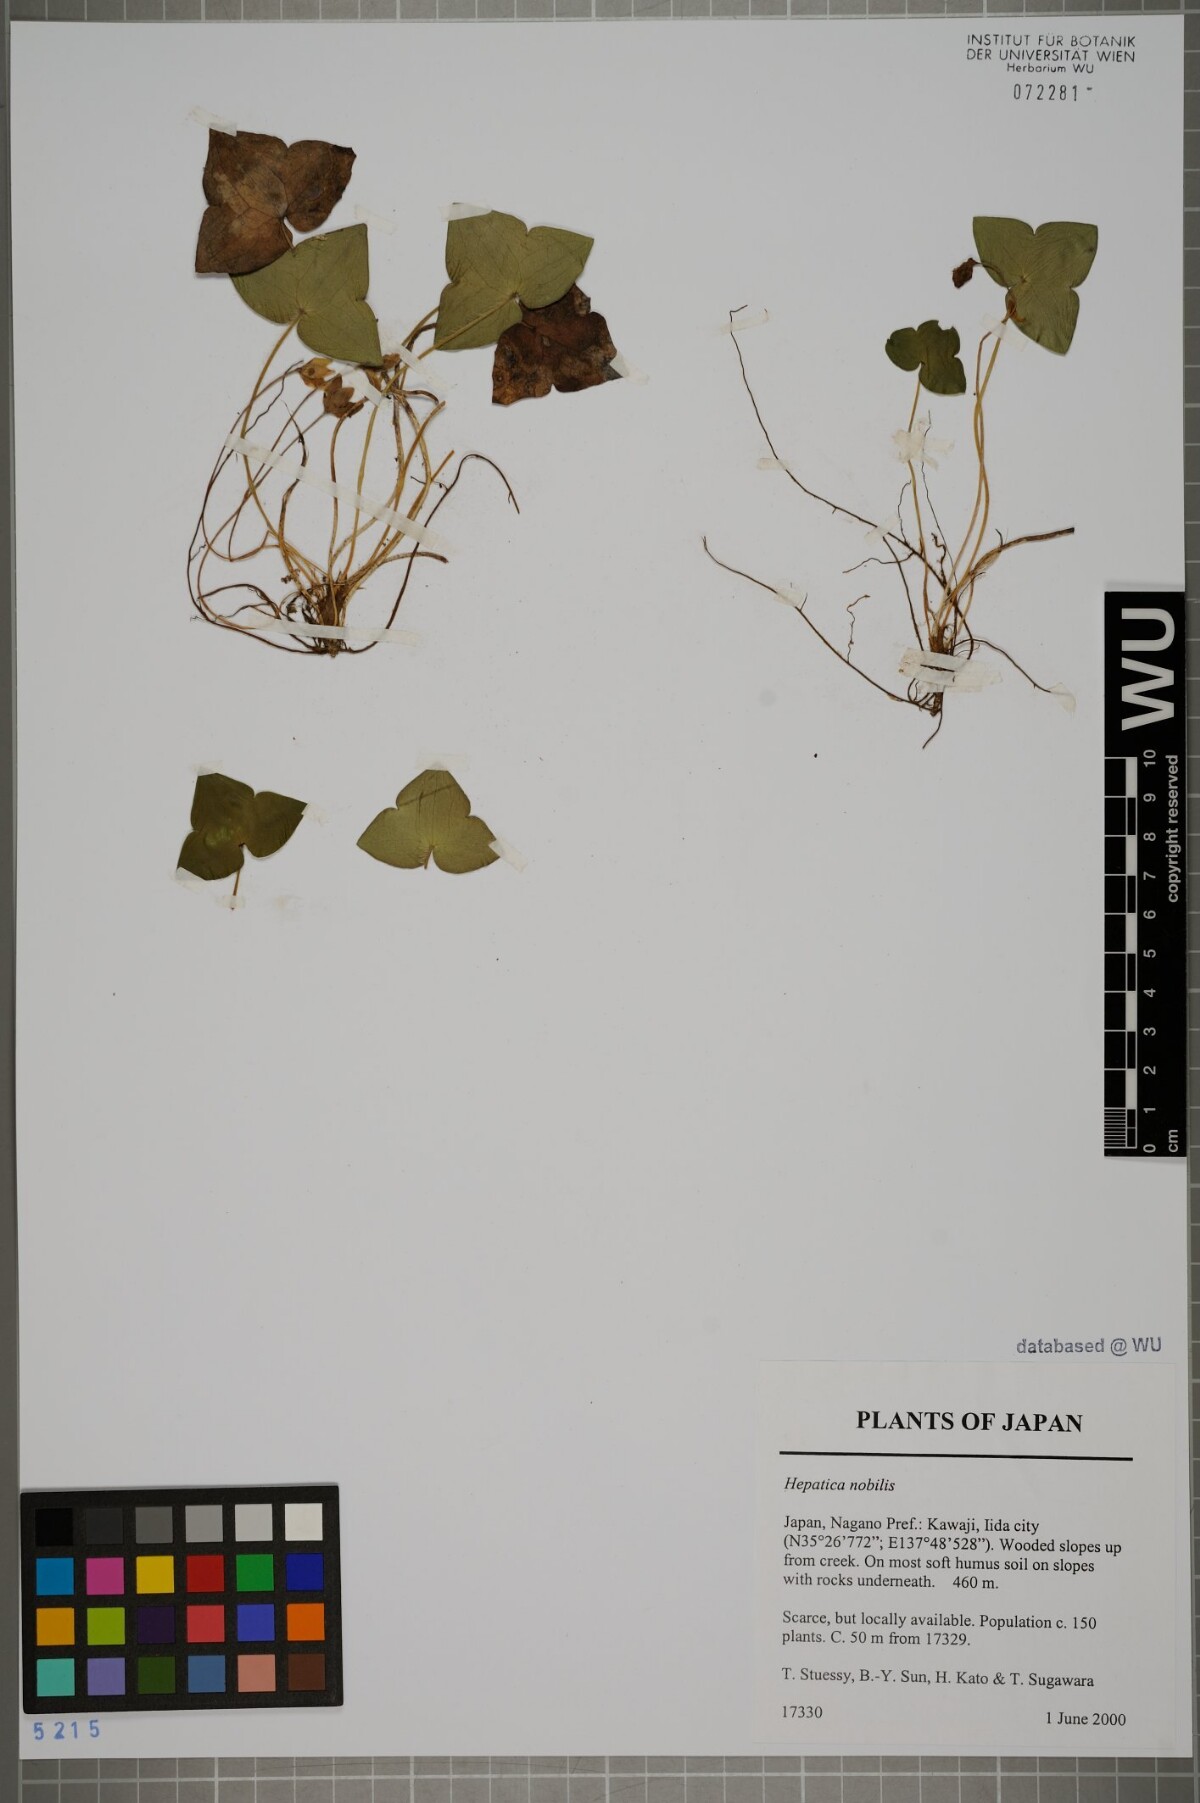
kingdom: Plantae
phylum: Tracheophyta
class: Magnoliopsida
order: Ranunculales
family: Ranunculaceae
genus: Hepatica
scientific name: Hepatica nobilis
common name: Liverleaf
